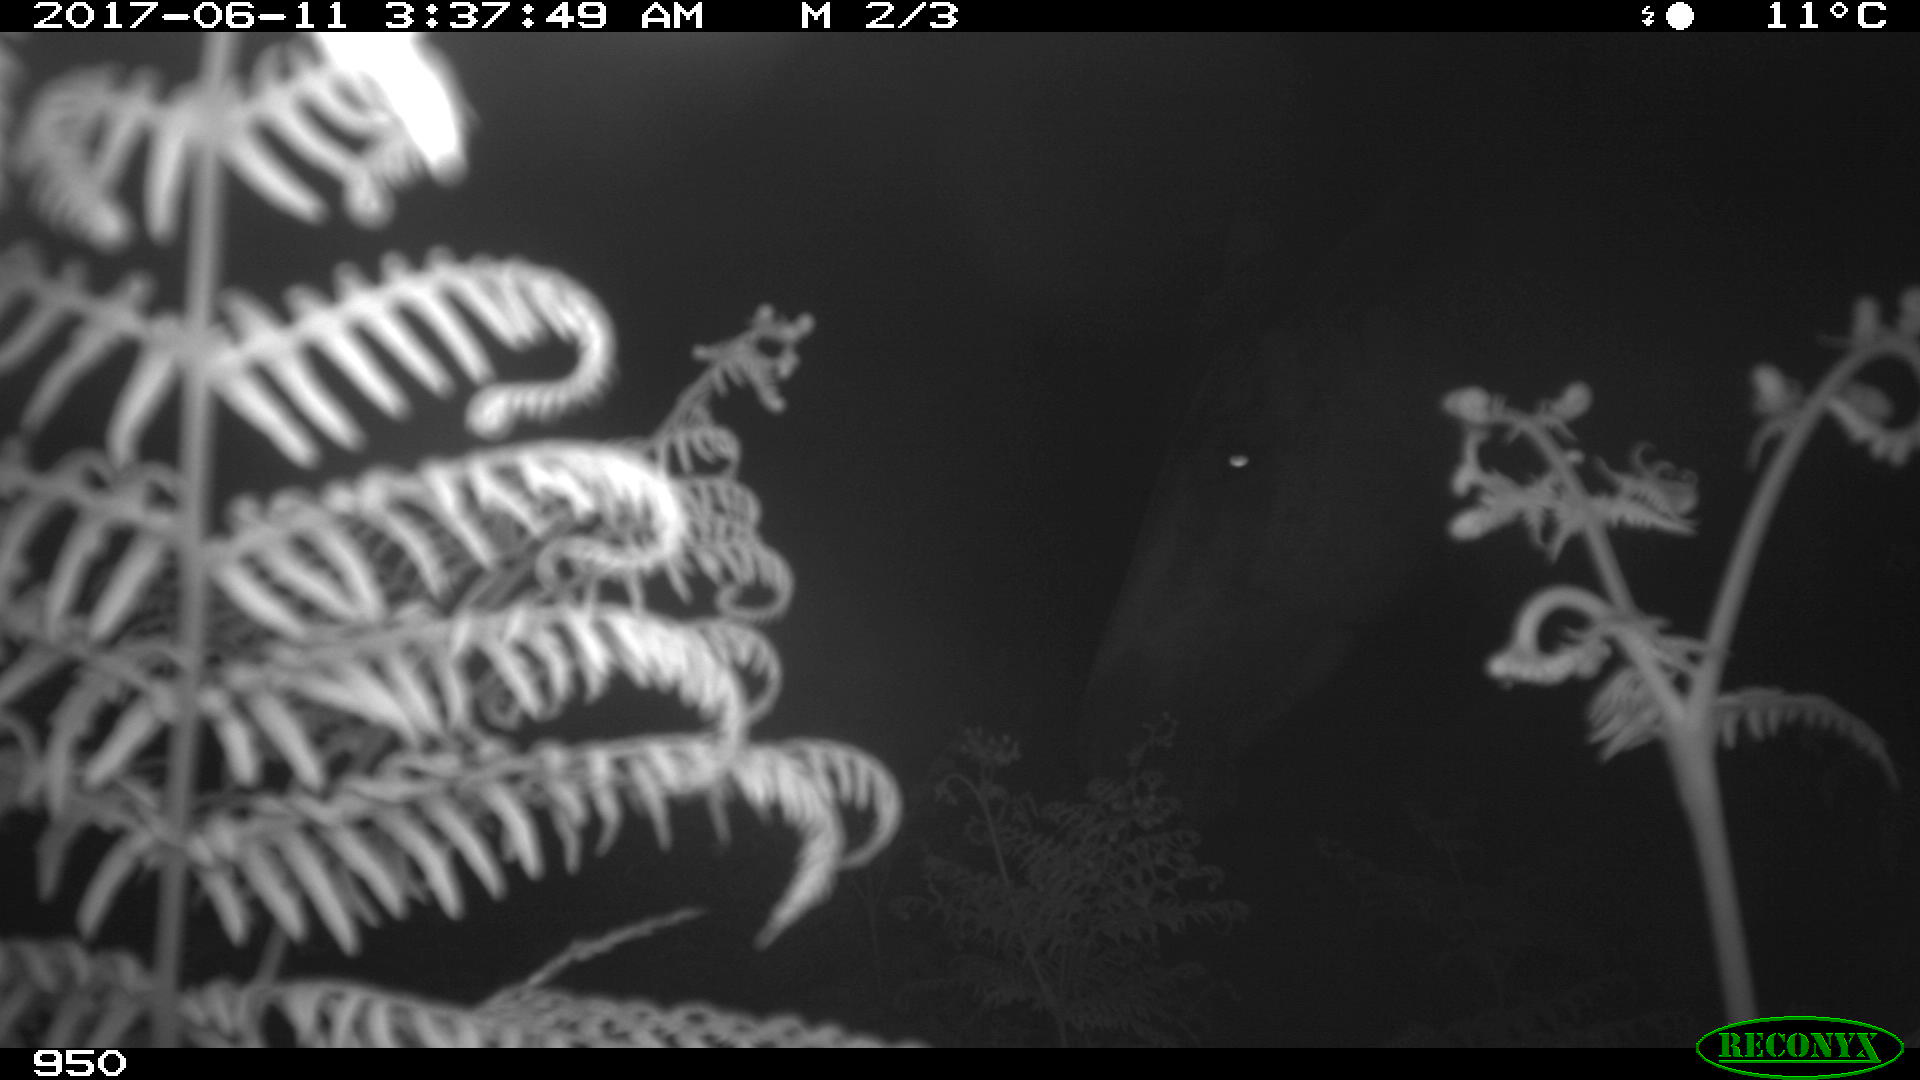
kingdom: Animalia
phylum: Chordata
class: Mammalia
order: Perissodactyla
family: Equidae
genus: Equus
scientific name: Equus caballus
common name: Horse
